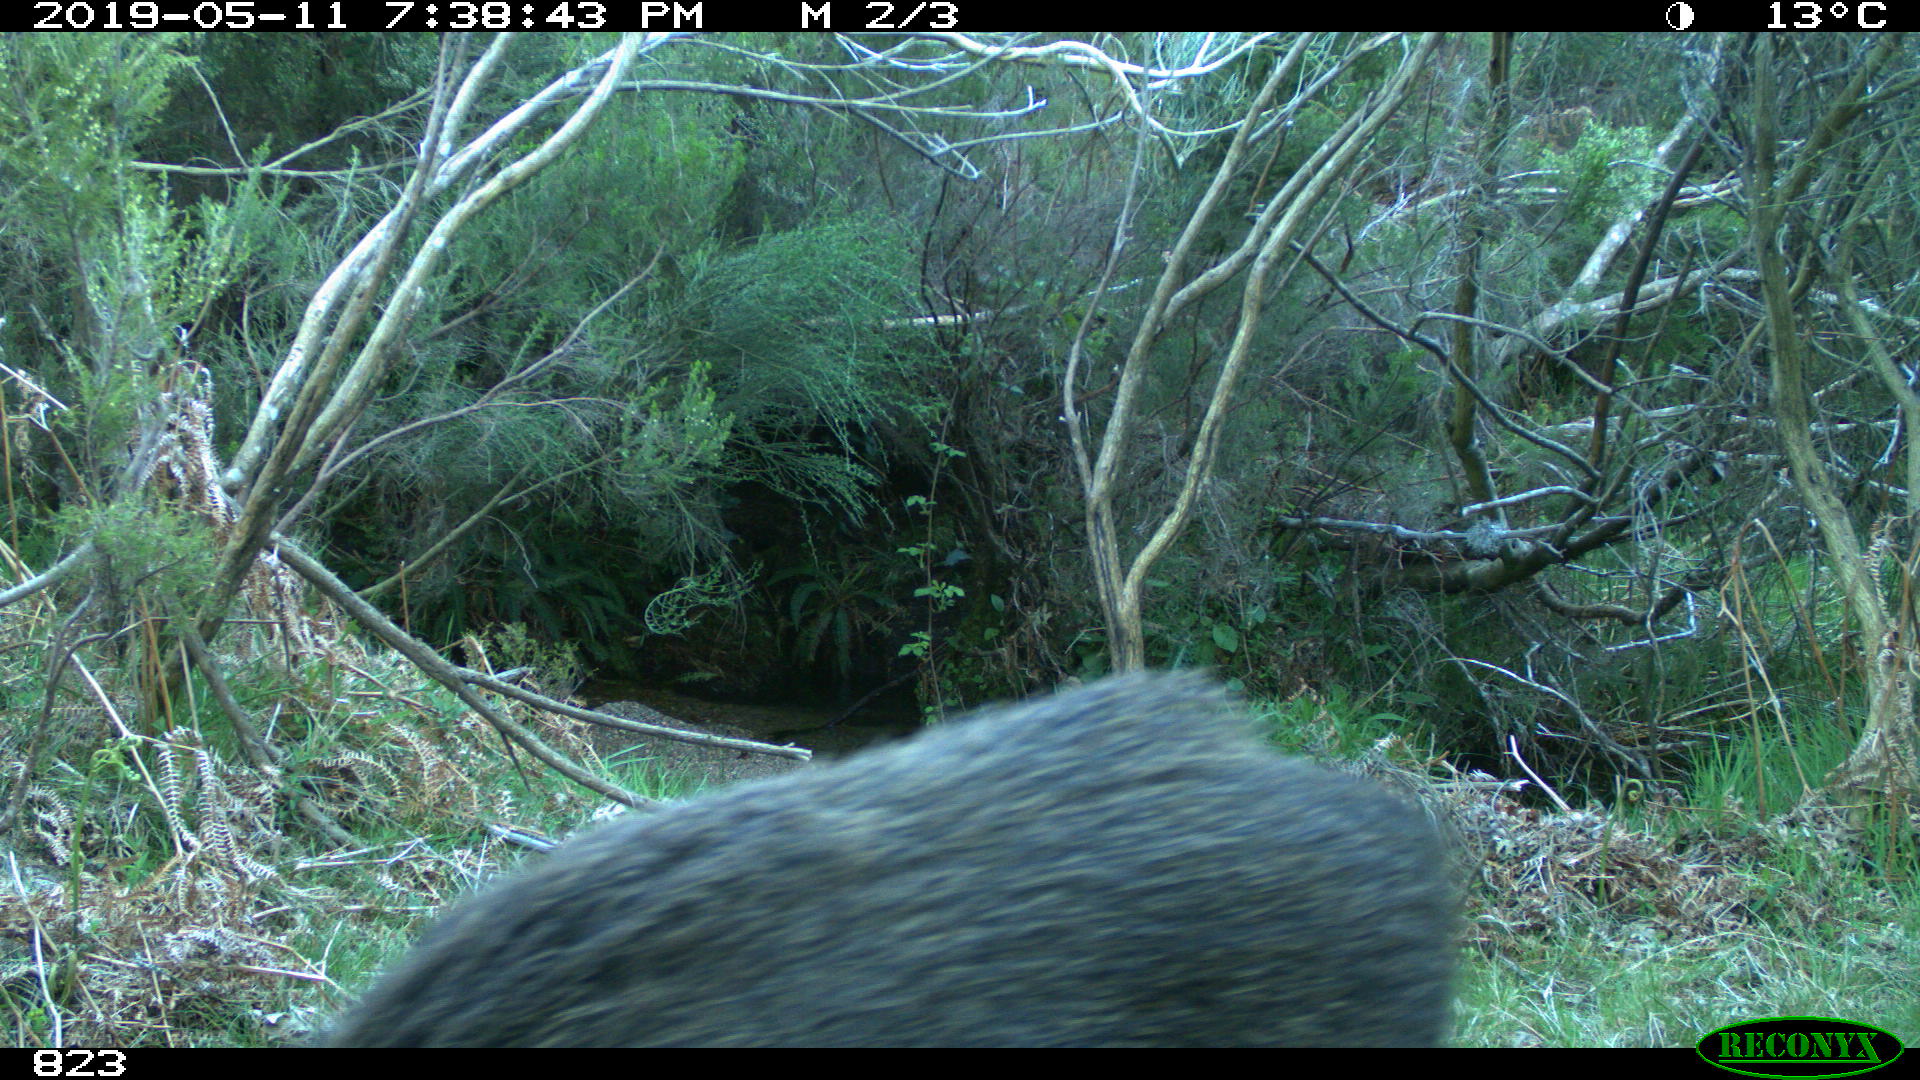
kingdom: Animalia
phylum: Chordata
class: Mammalia
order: Artiodactyla
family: Suidae
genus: Sus
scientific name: Sus scrofa
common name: Wild boar
